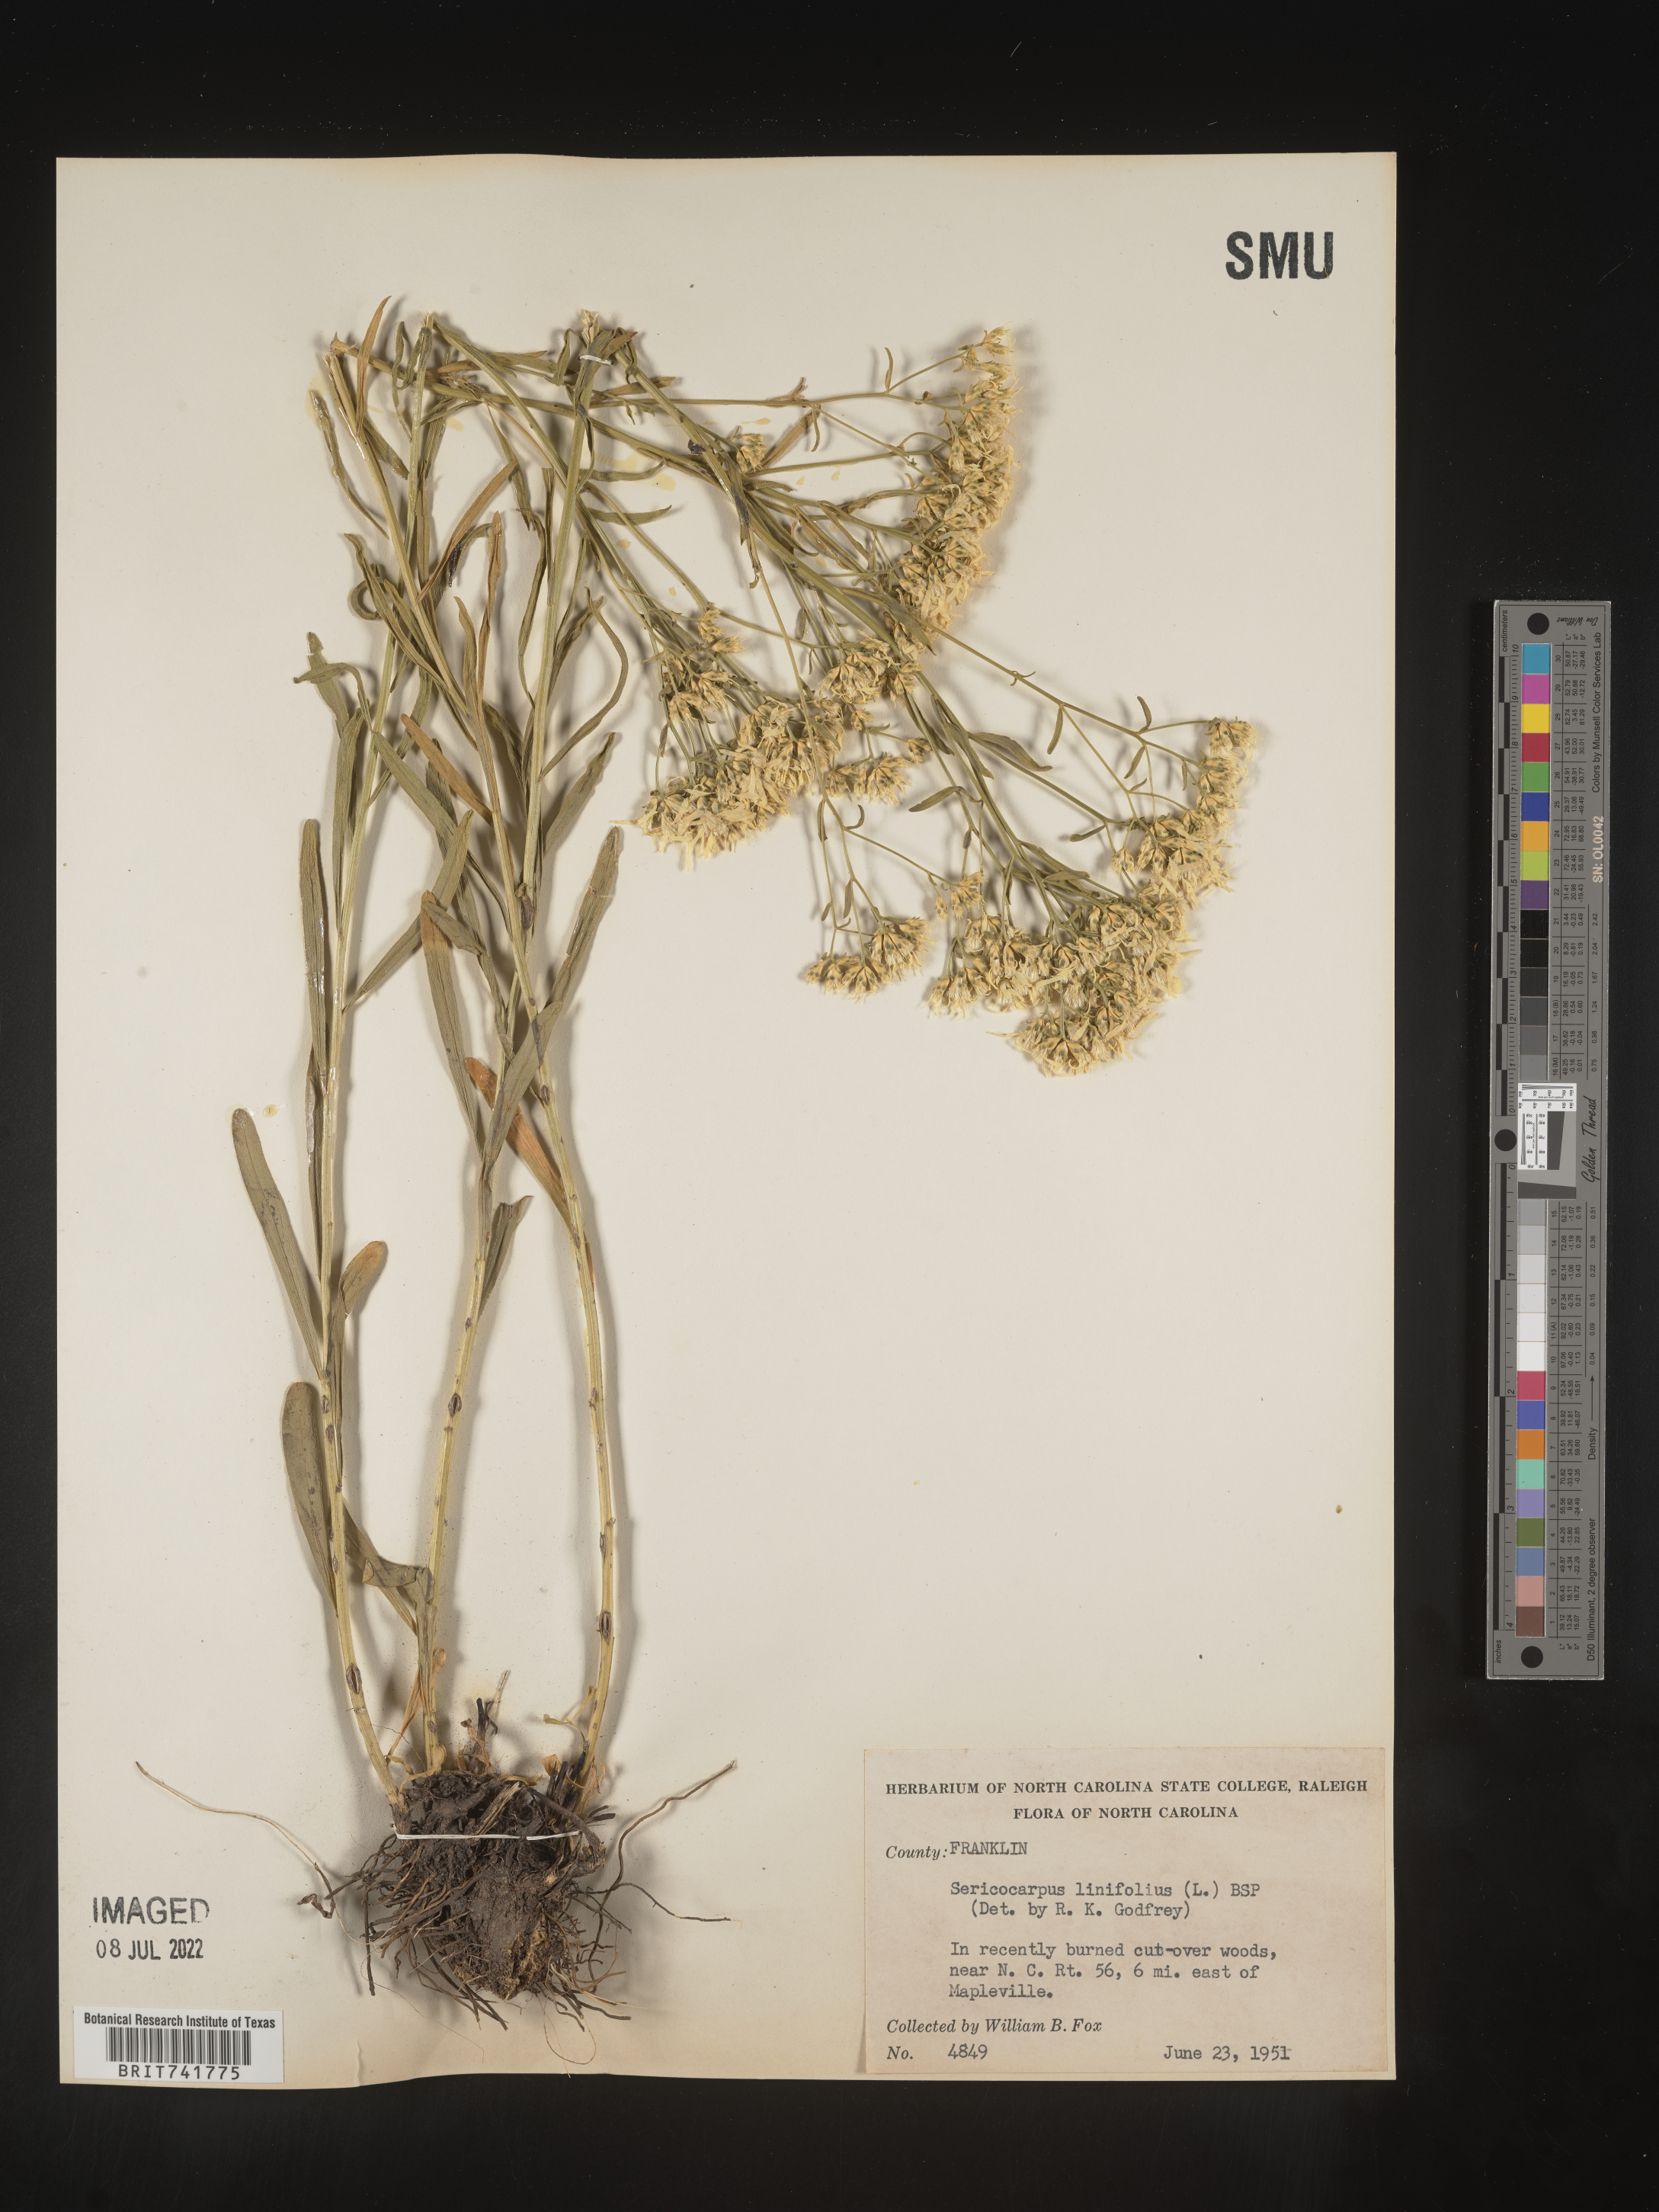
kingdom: Plantae
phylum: Tracheophyta
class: Magnoliopsida
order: Asterales
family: Asteraceae
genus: Sericocarpus
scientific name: Sericocarpus linifolius
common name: Narrow-leaf aster
